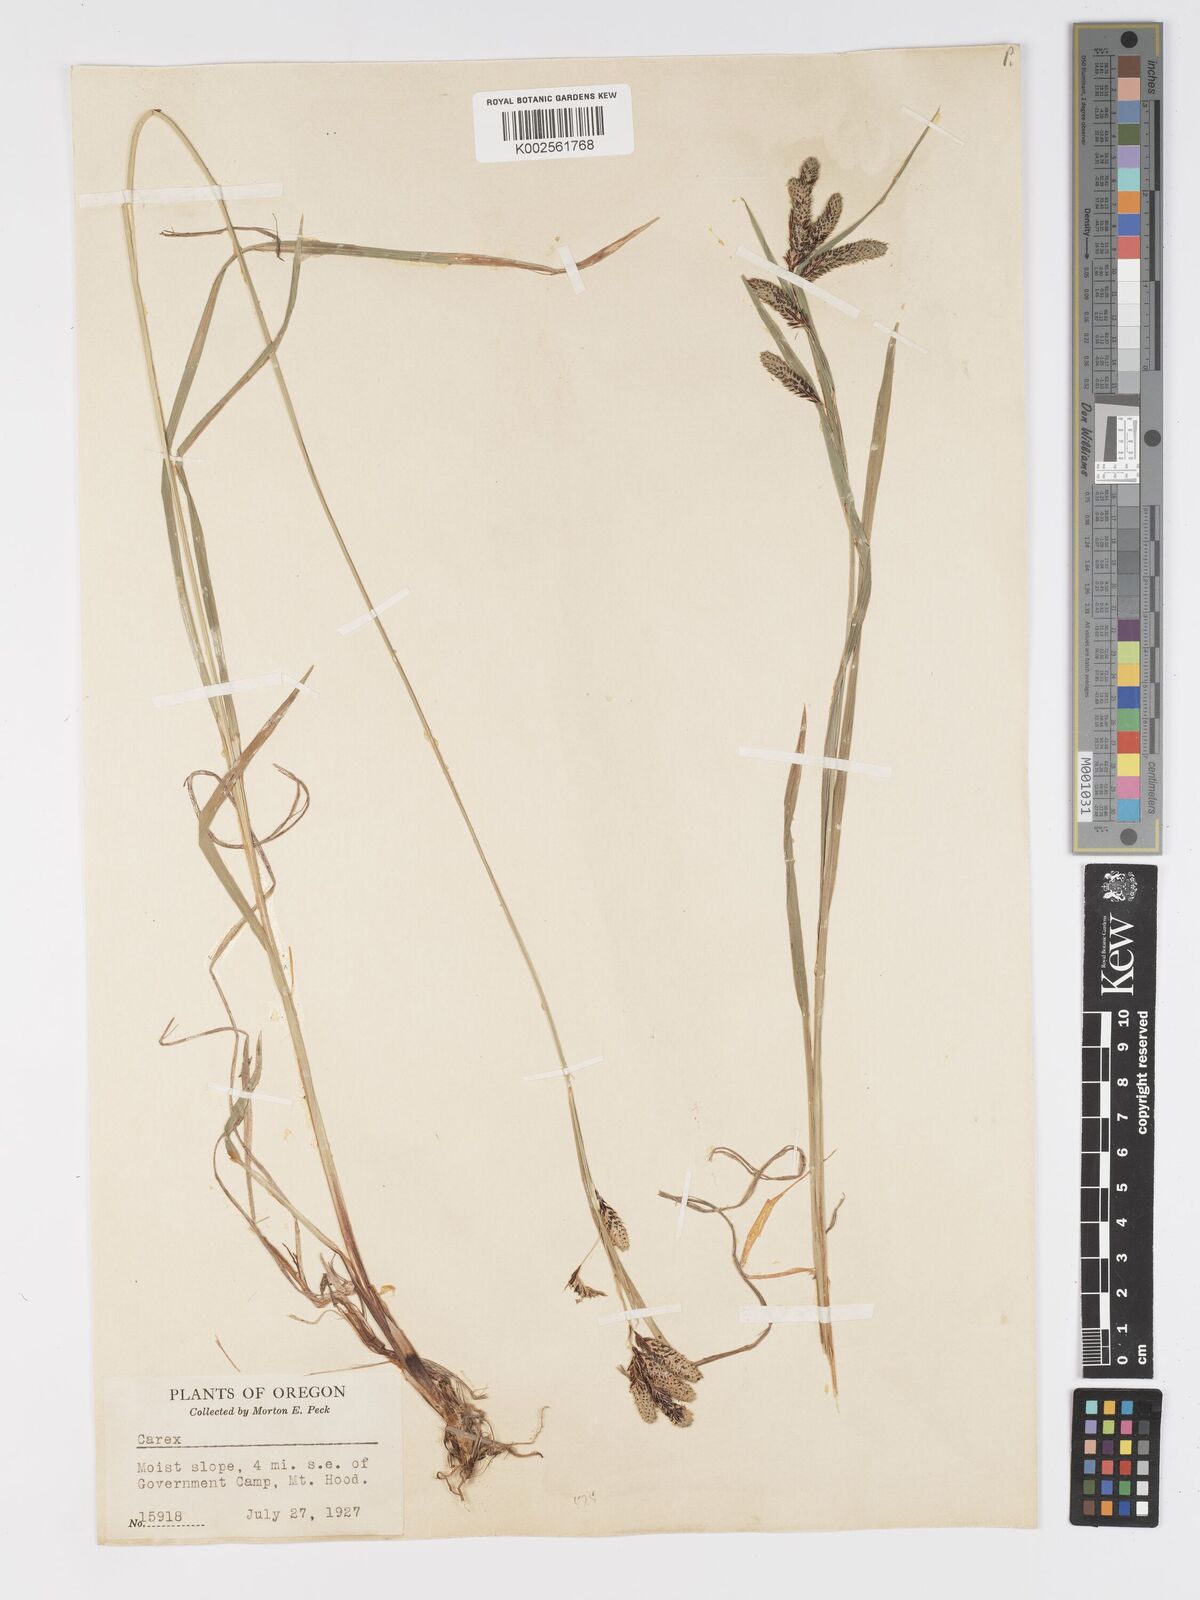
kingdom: Plantae
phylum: Tracheophyta
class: Liliopsida
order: Poales
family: Cyperaceae
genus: Carex
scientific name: Carex mertensii
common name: Mertens' sedge
